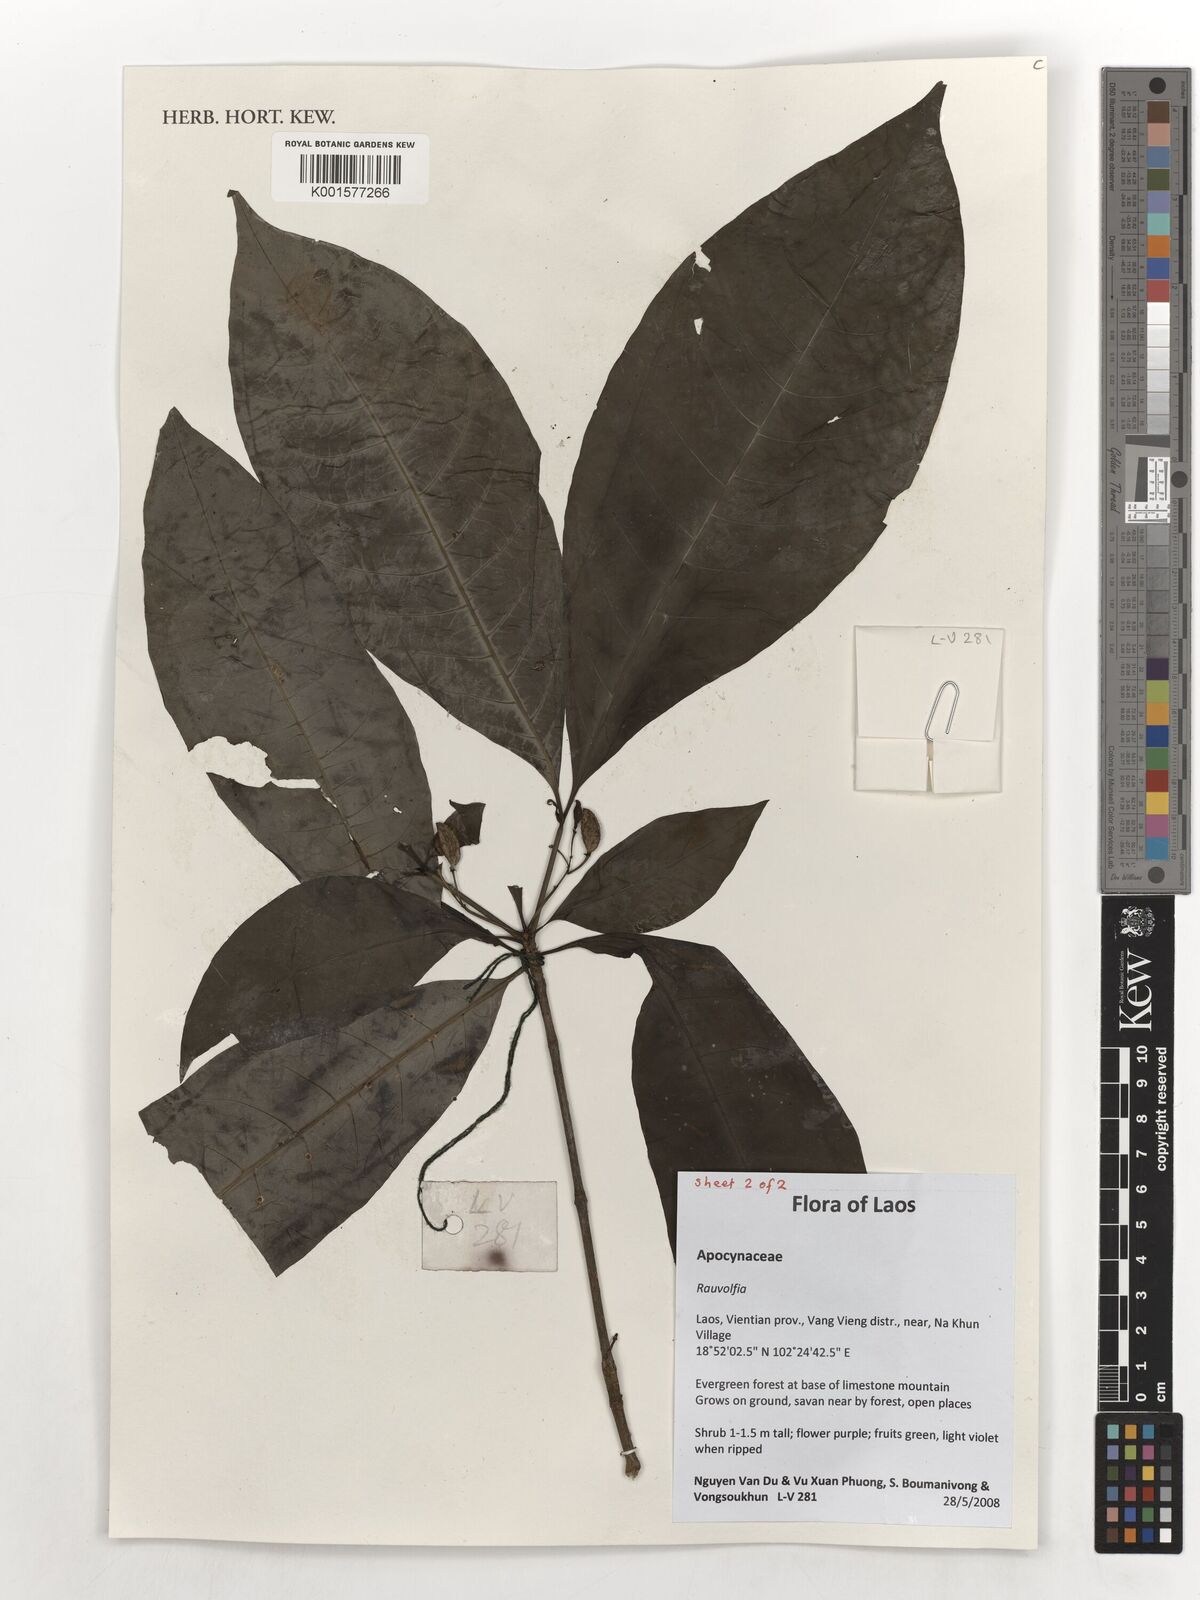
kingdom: Plantae
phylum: Tracheophyta
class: Magnoliopsida
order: Gentianales
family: Apocynaceae
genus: Rauvolfia
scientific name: Rauvolfia
